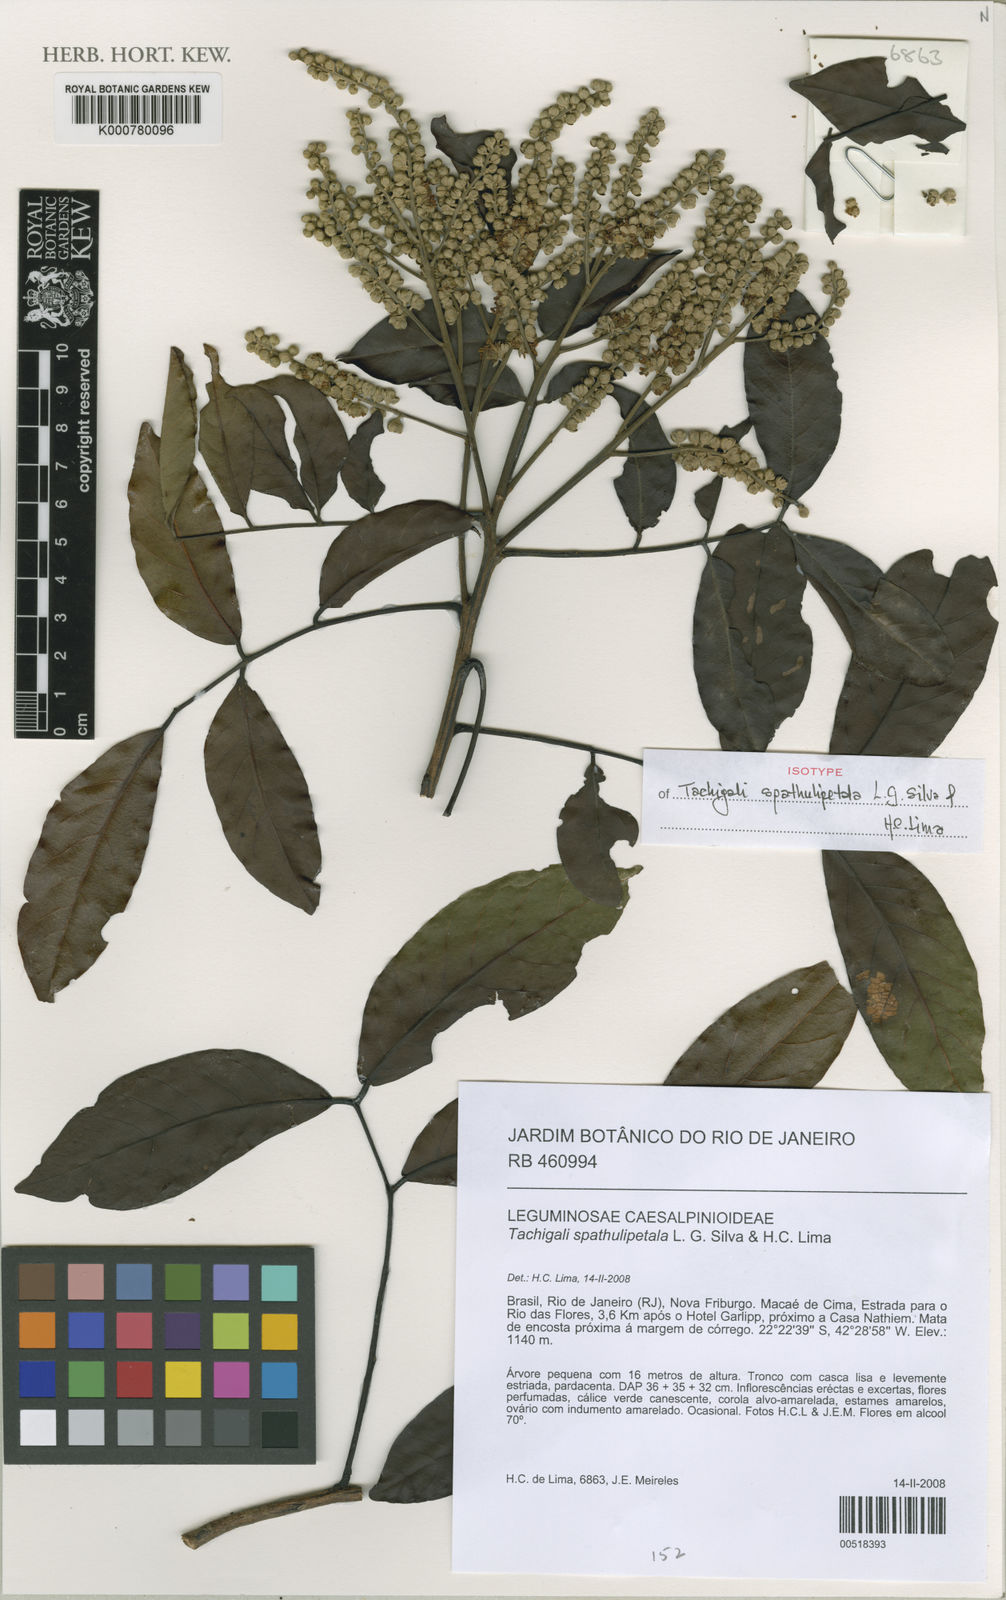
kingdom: Plantae
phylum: Tracheophyta
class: Magnoliopsida
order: Fabales
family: Fabaceae
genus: Tachigali
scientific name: Tachigali spathulipetala
